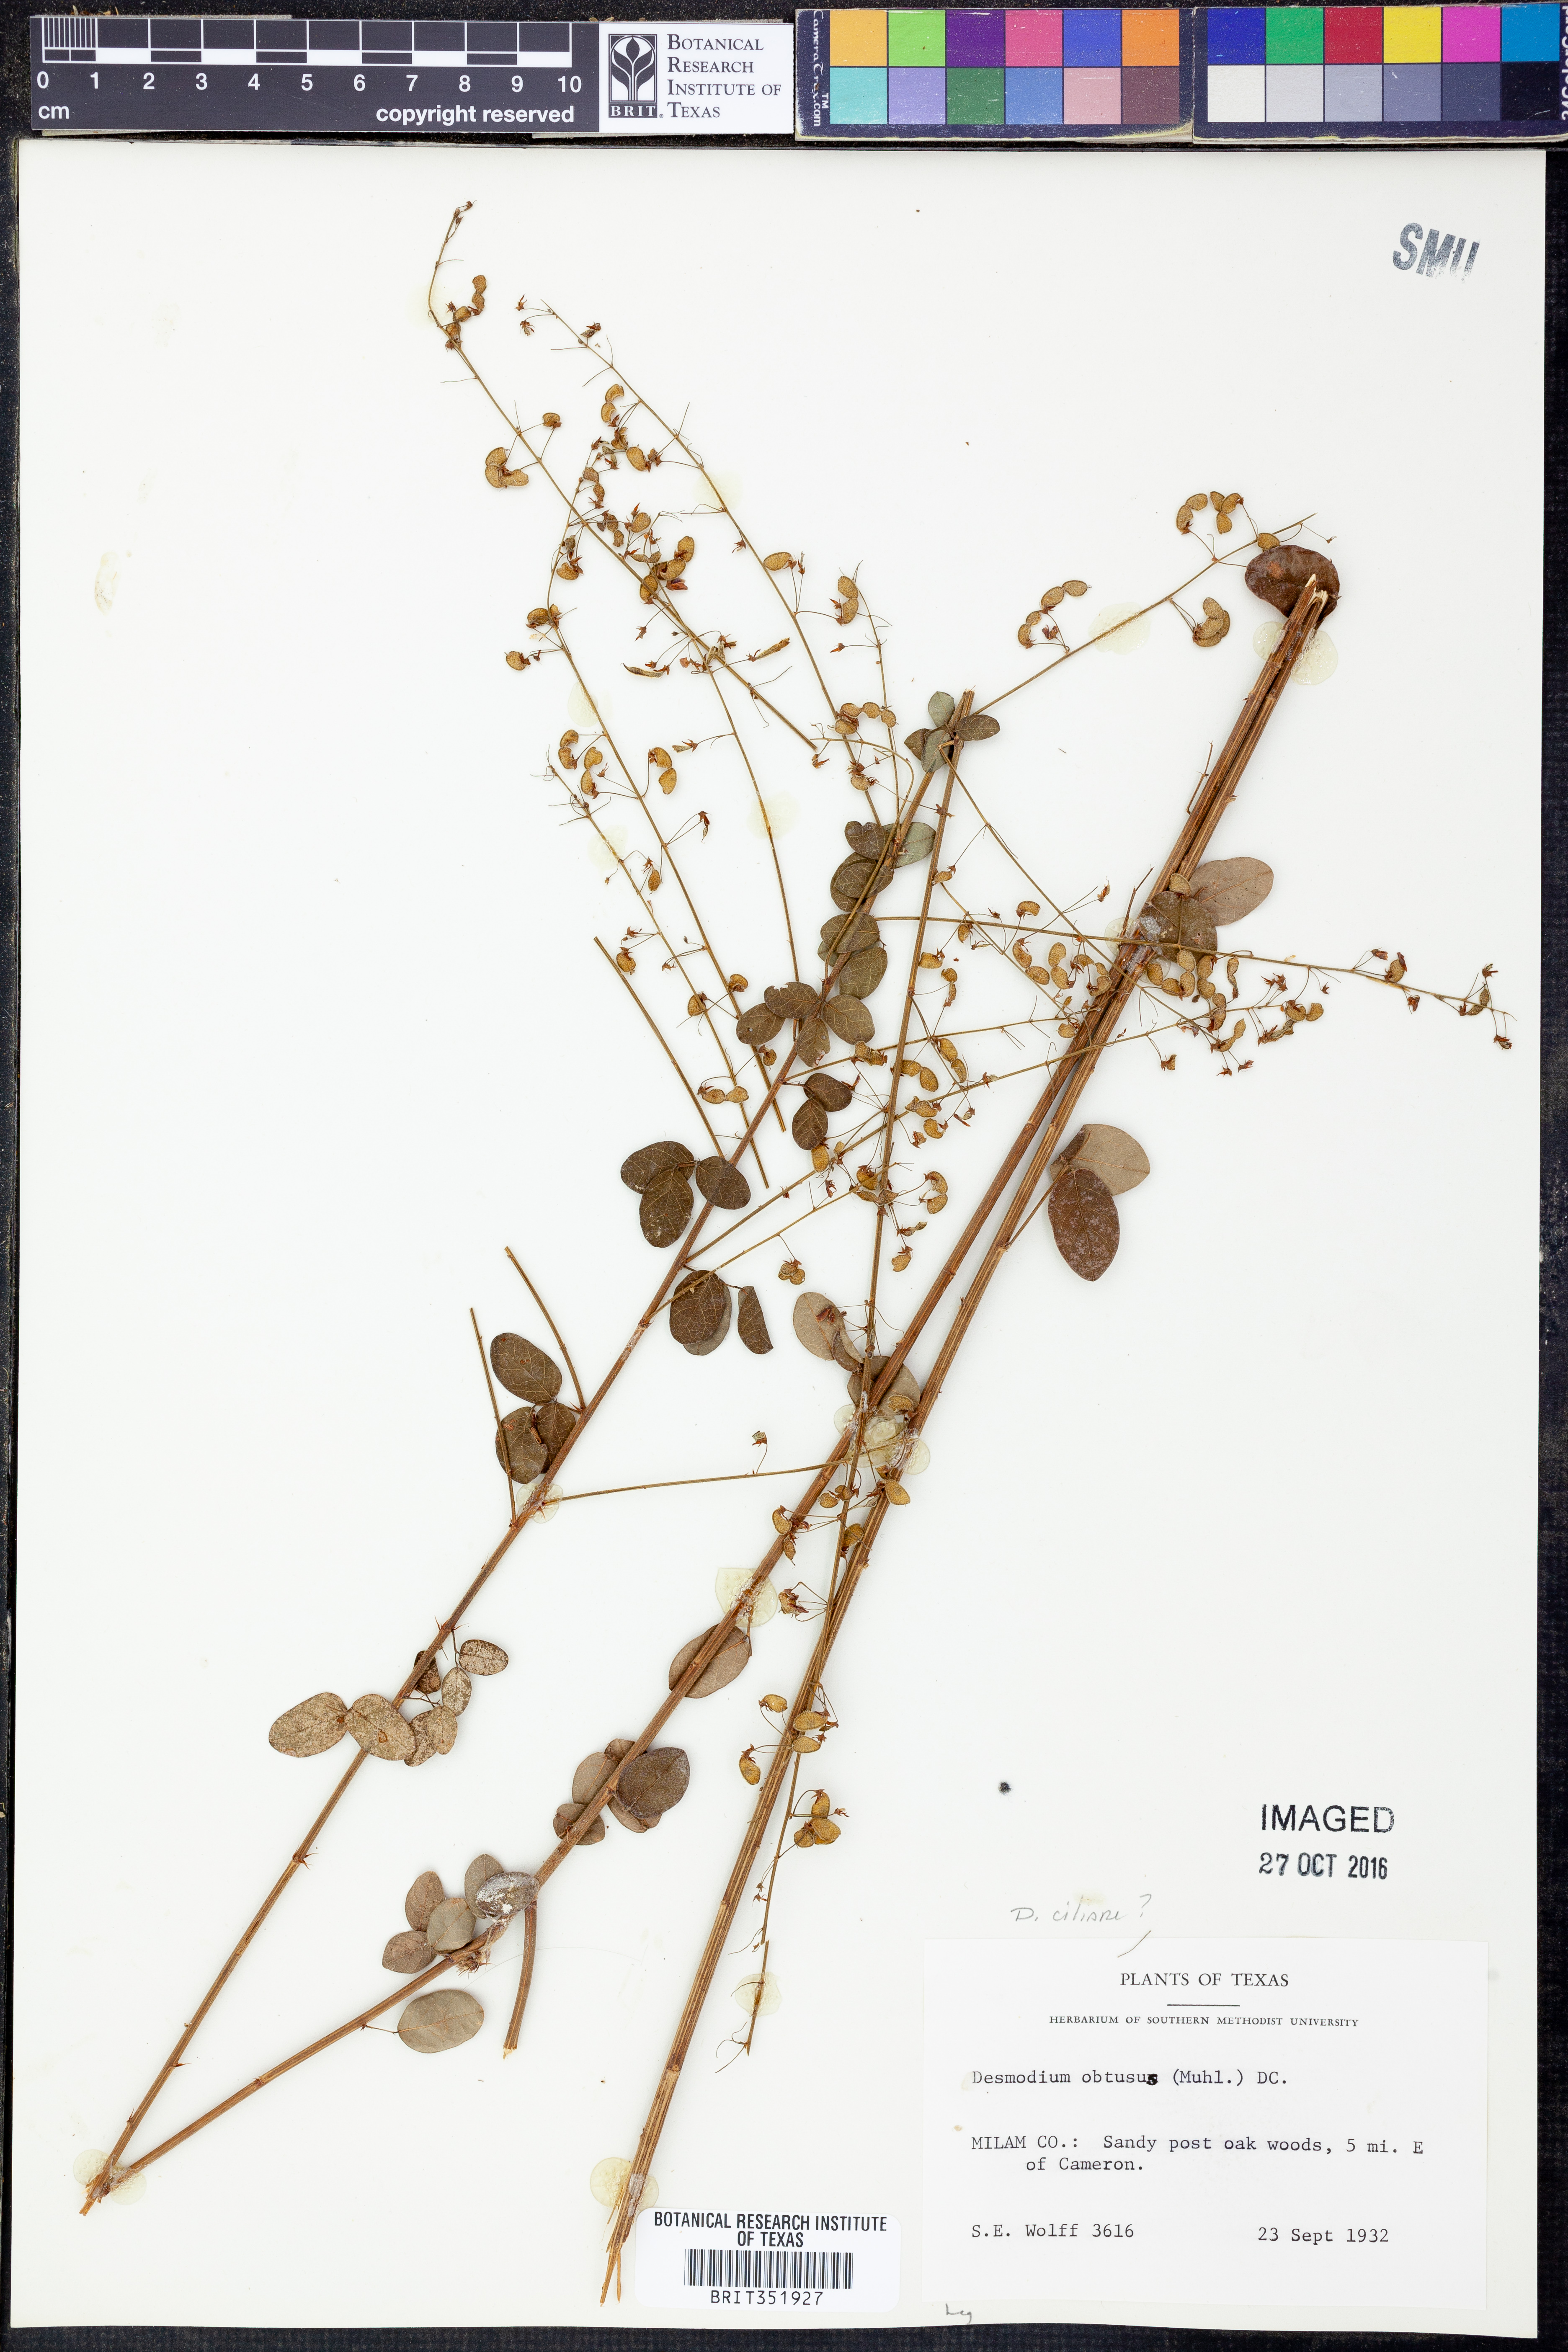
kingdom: Plantae
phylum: Tracheophyta
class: Magnoliopsida
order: Fabales
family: Fabaceae
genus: Desmodium
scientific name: Desmodium ciliare
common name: Hairy small-leaf ticktrefoil
